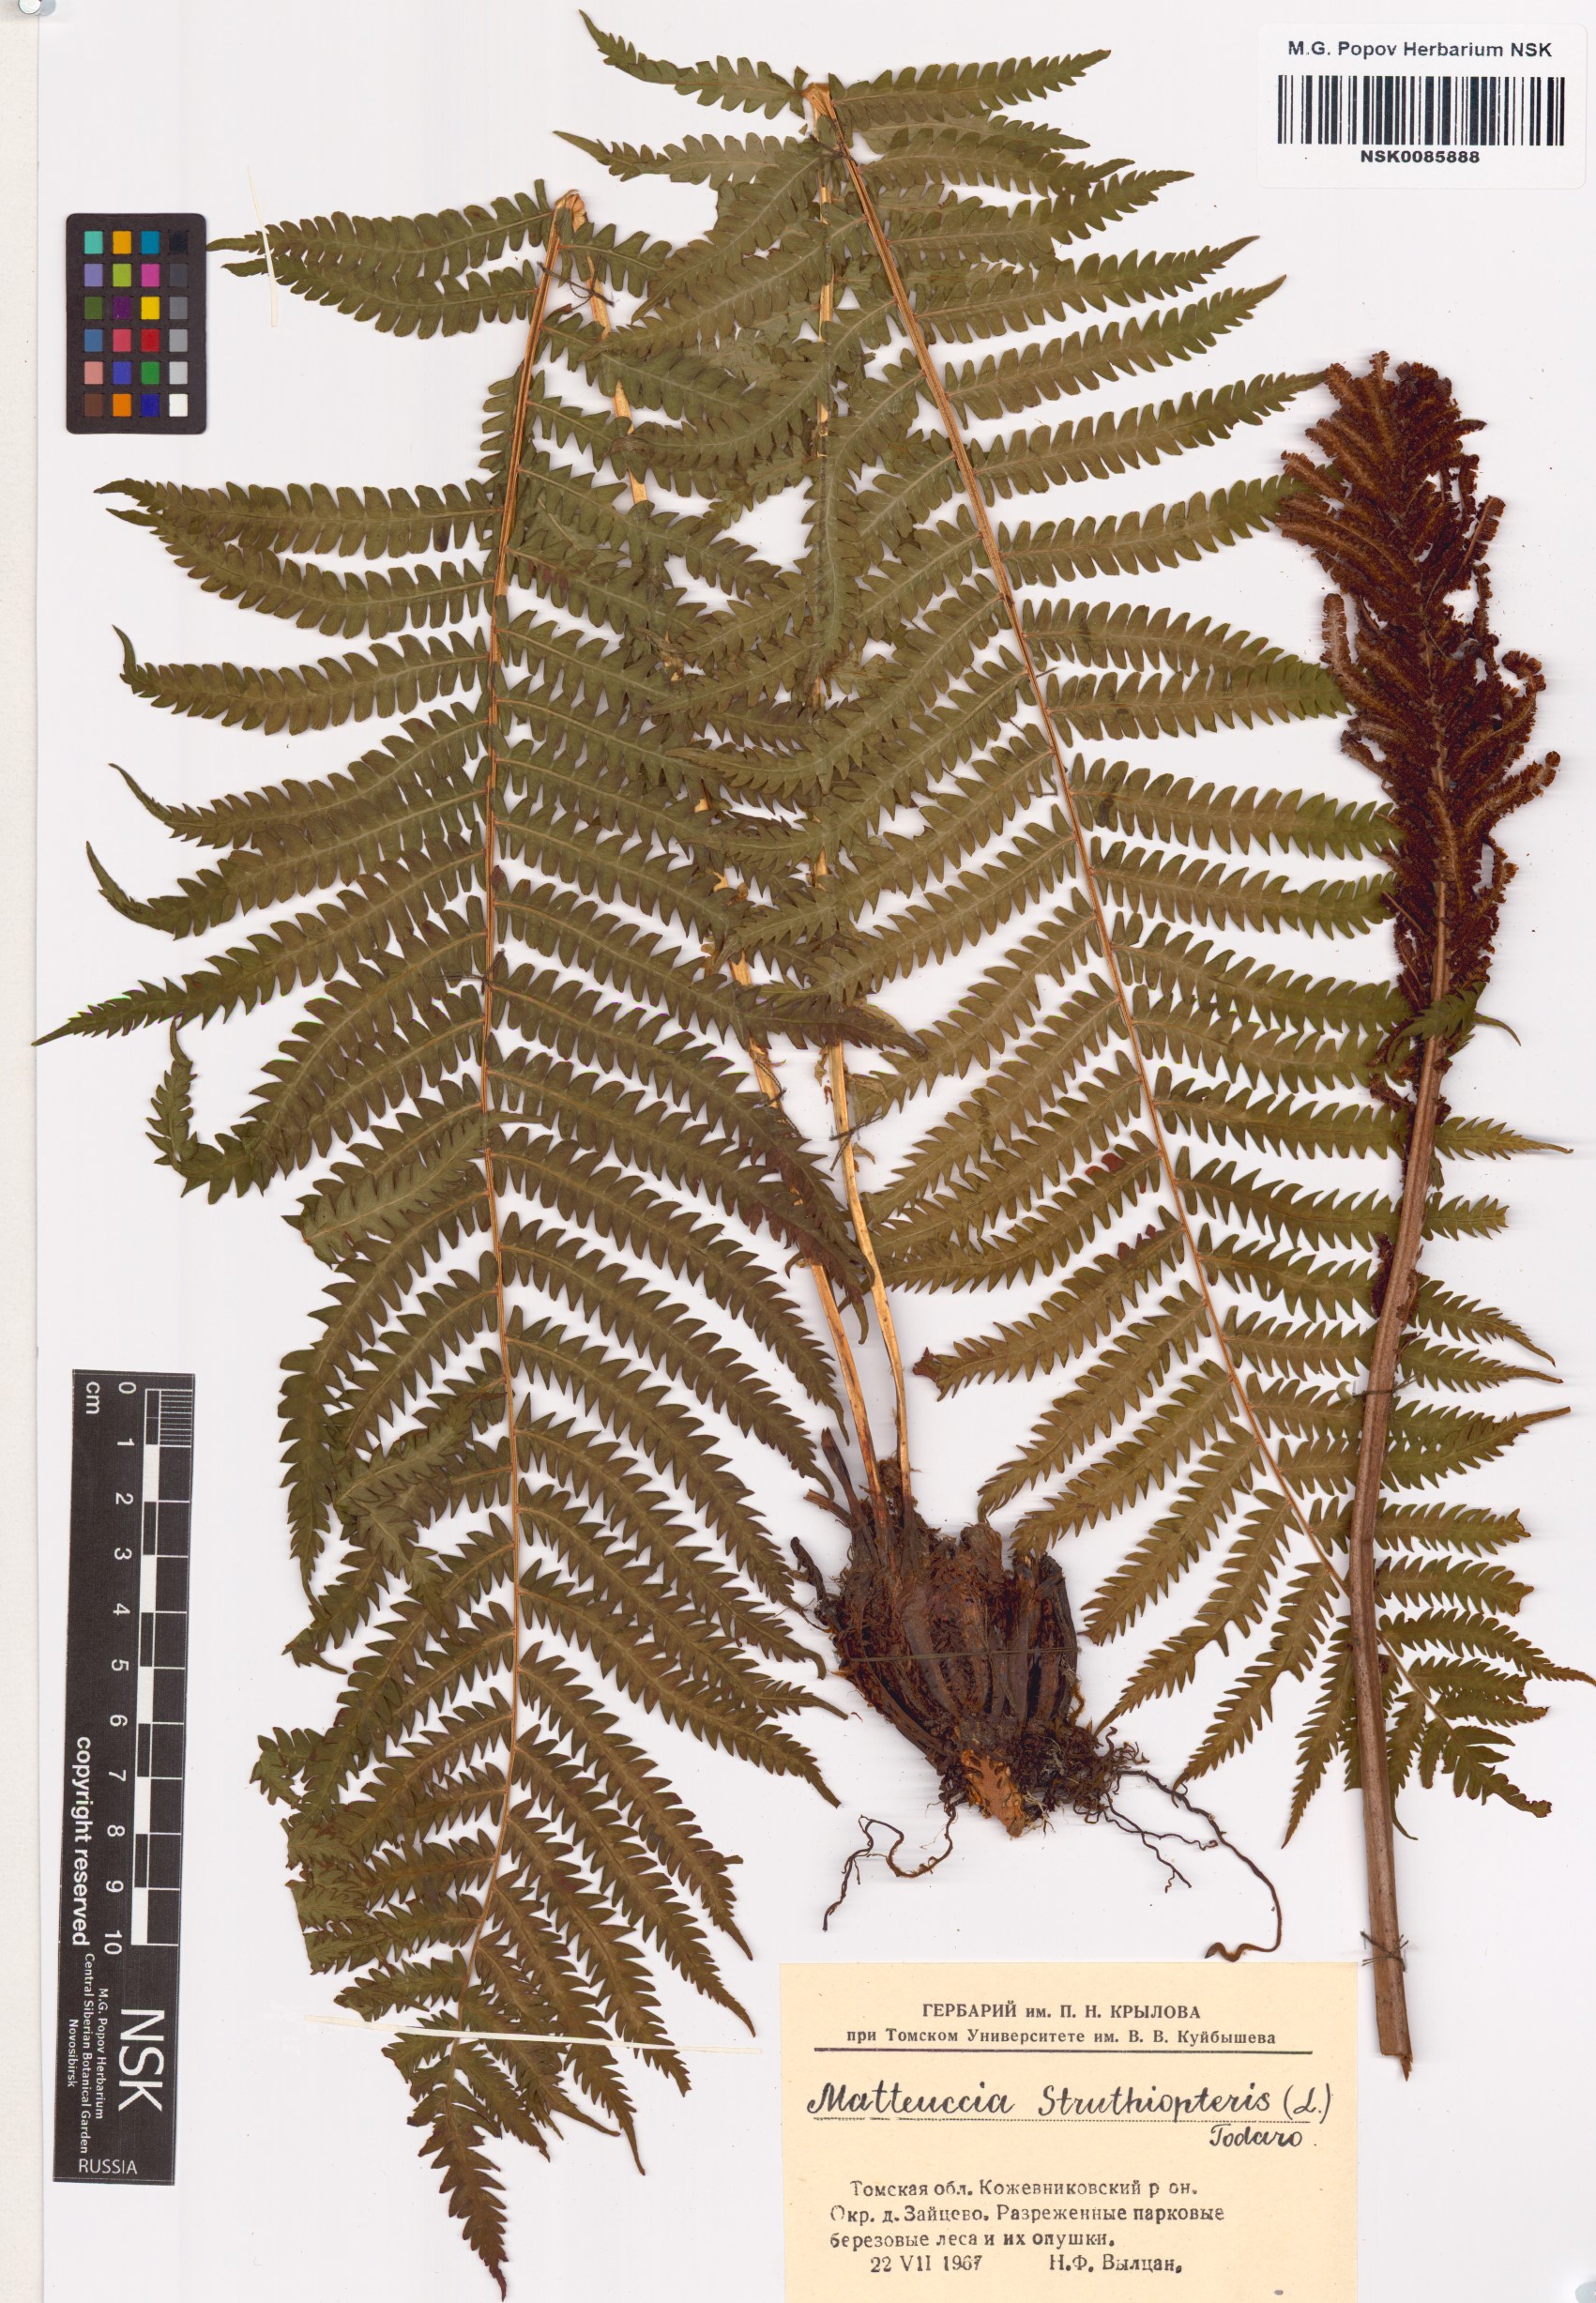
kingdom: Plantae
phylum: Tracheophyta
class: Polypodiopsida
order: Polypodiales
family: Onocleaceae
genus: Matteuccia
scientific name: Matteuccia struthiopteris
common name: Ostrich fern
